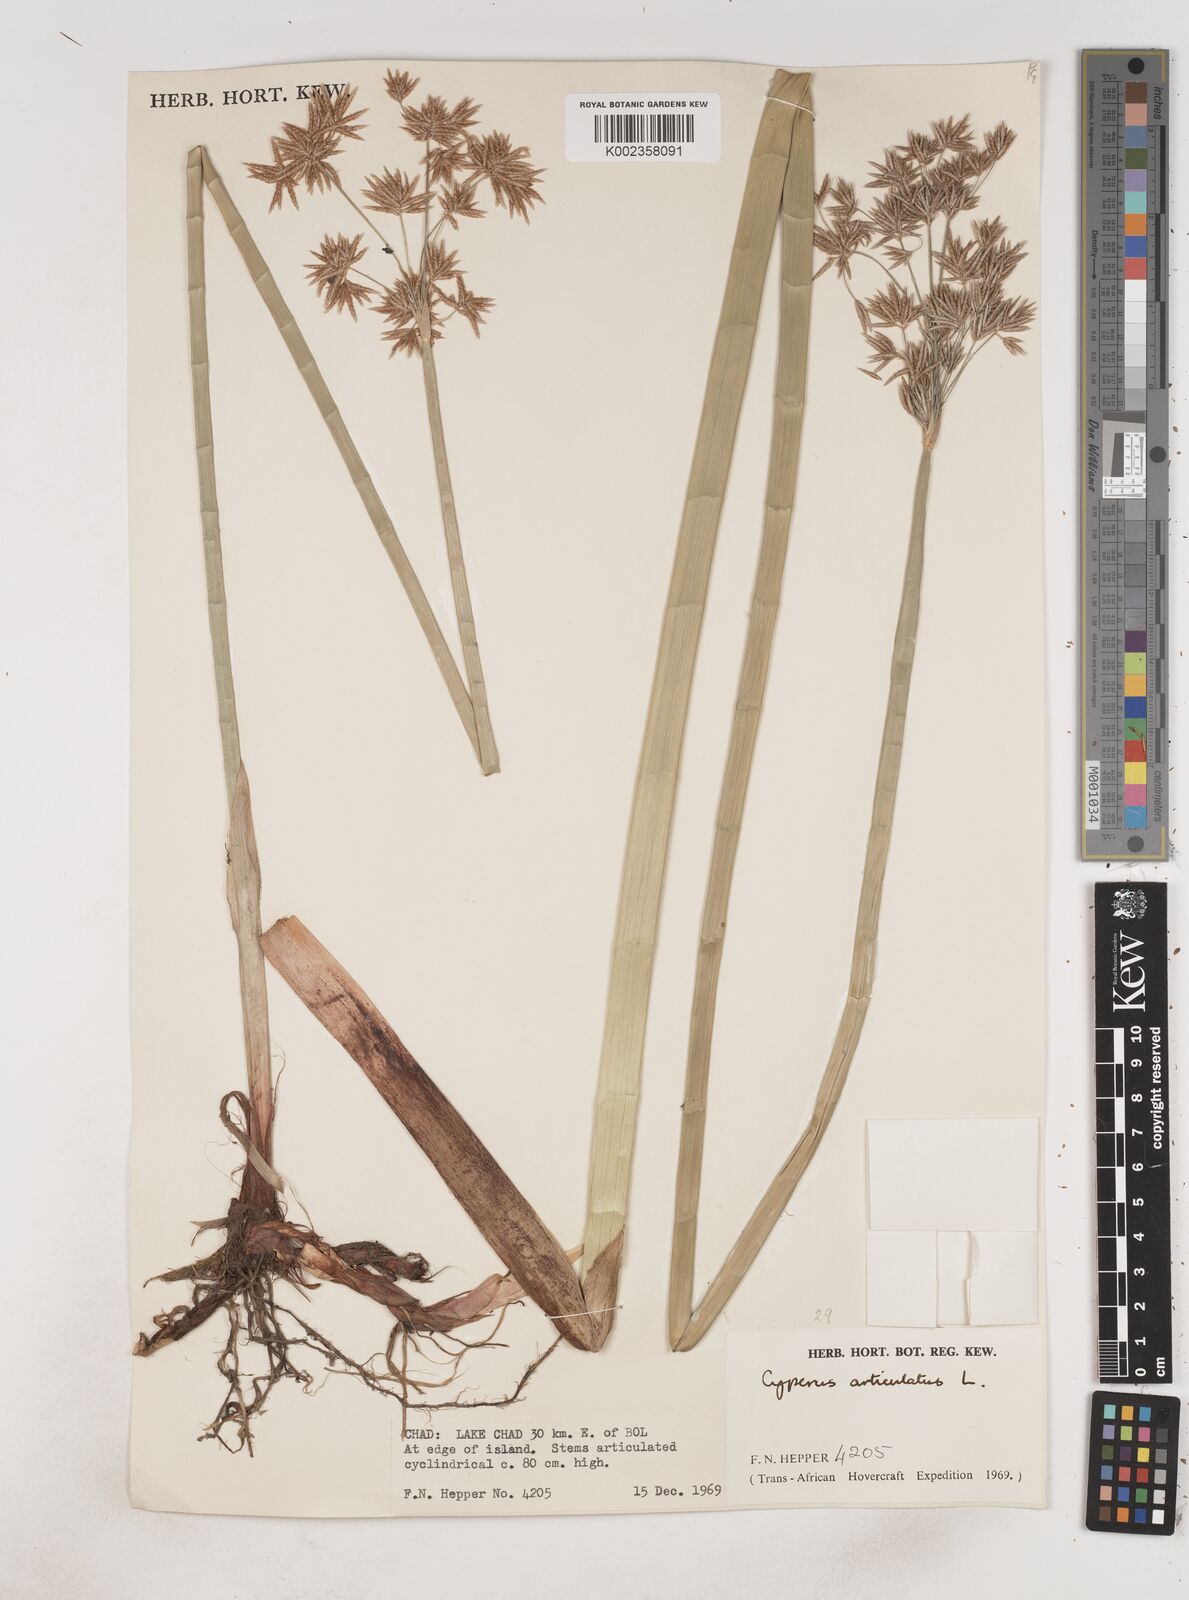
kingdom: Plantae
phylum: Tracheophyta
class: Liliopsida
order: Poales
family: Cyperaceae
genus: Cyperus
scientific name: Cyperus articulatus
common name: Jointed flatsedge
